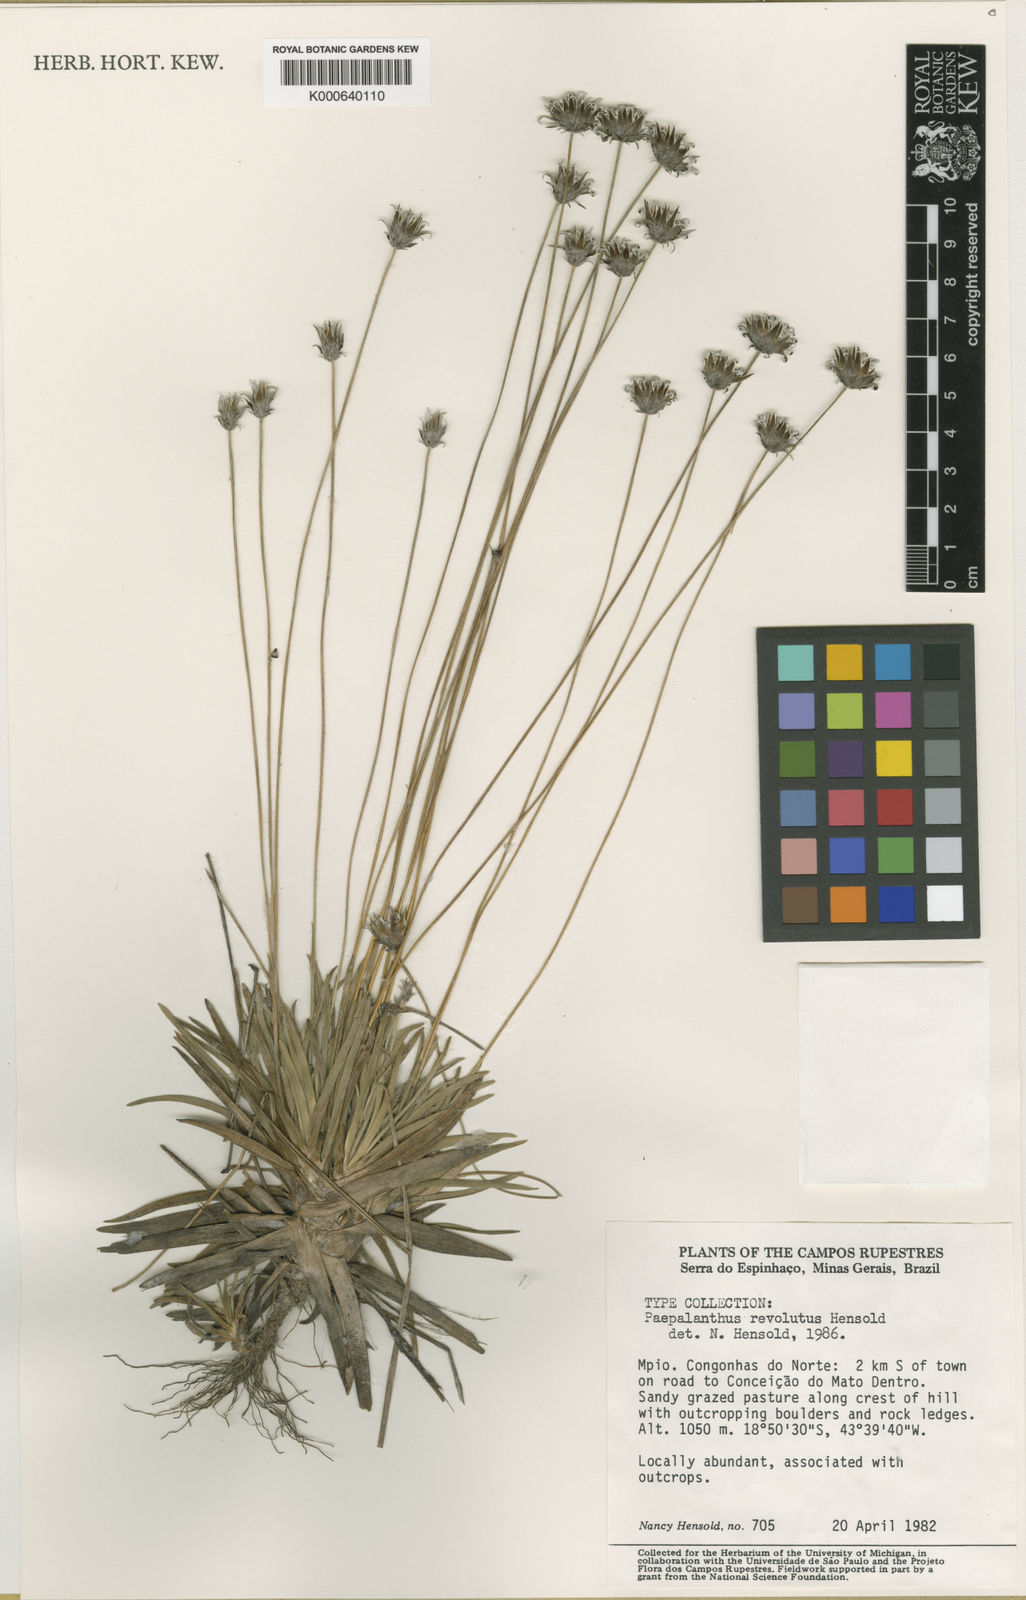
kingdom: Plantae
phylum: Tracheophyta
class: Liliopsida
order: Poales
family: Eriocaulaceae
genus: Paepalanthus
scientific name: Paepalanthus revolutus
